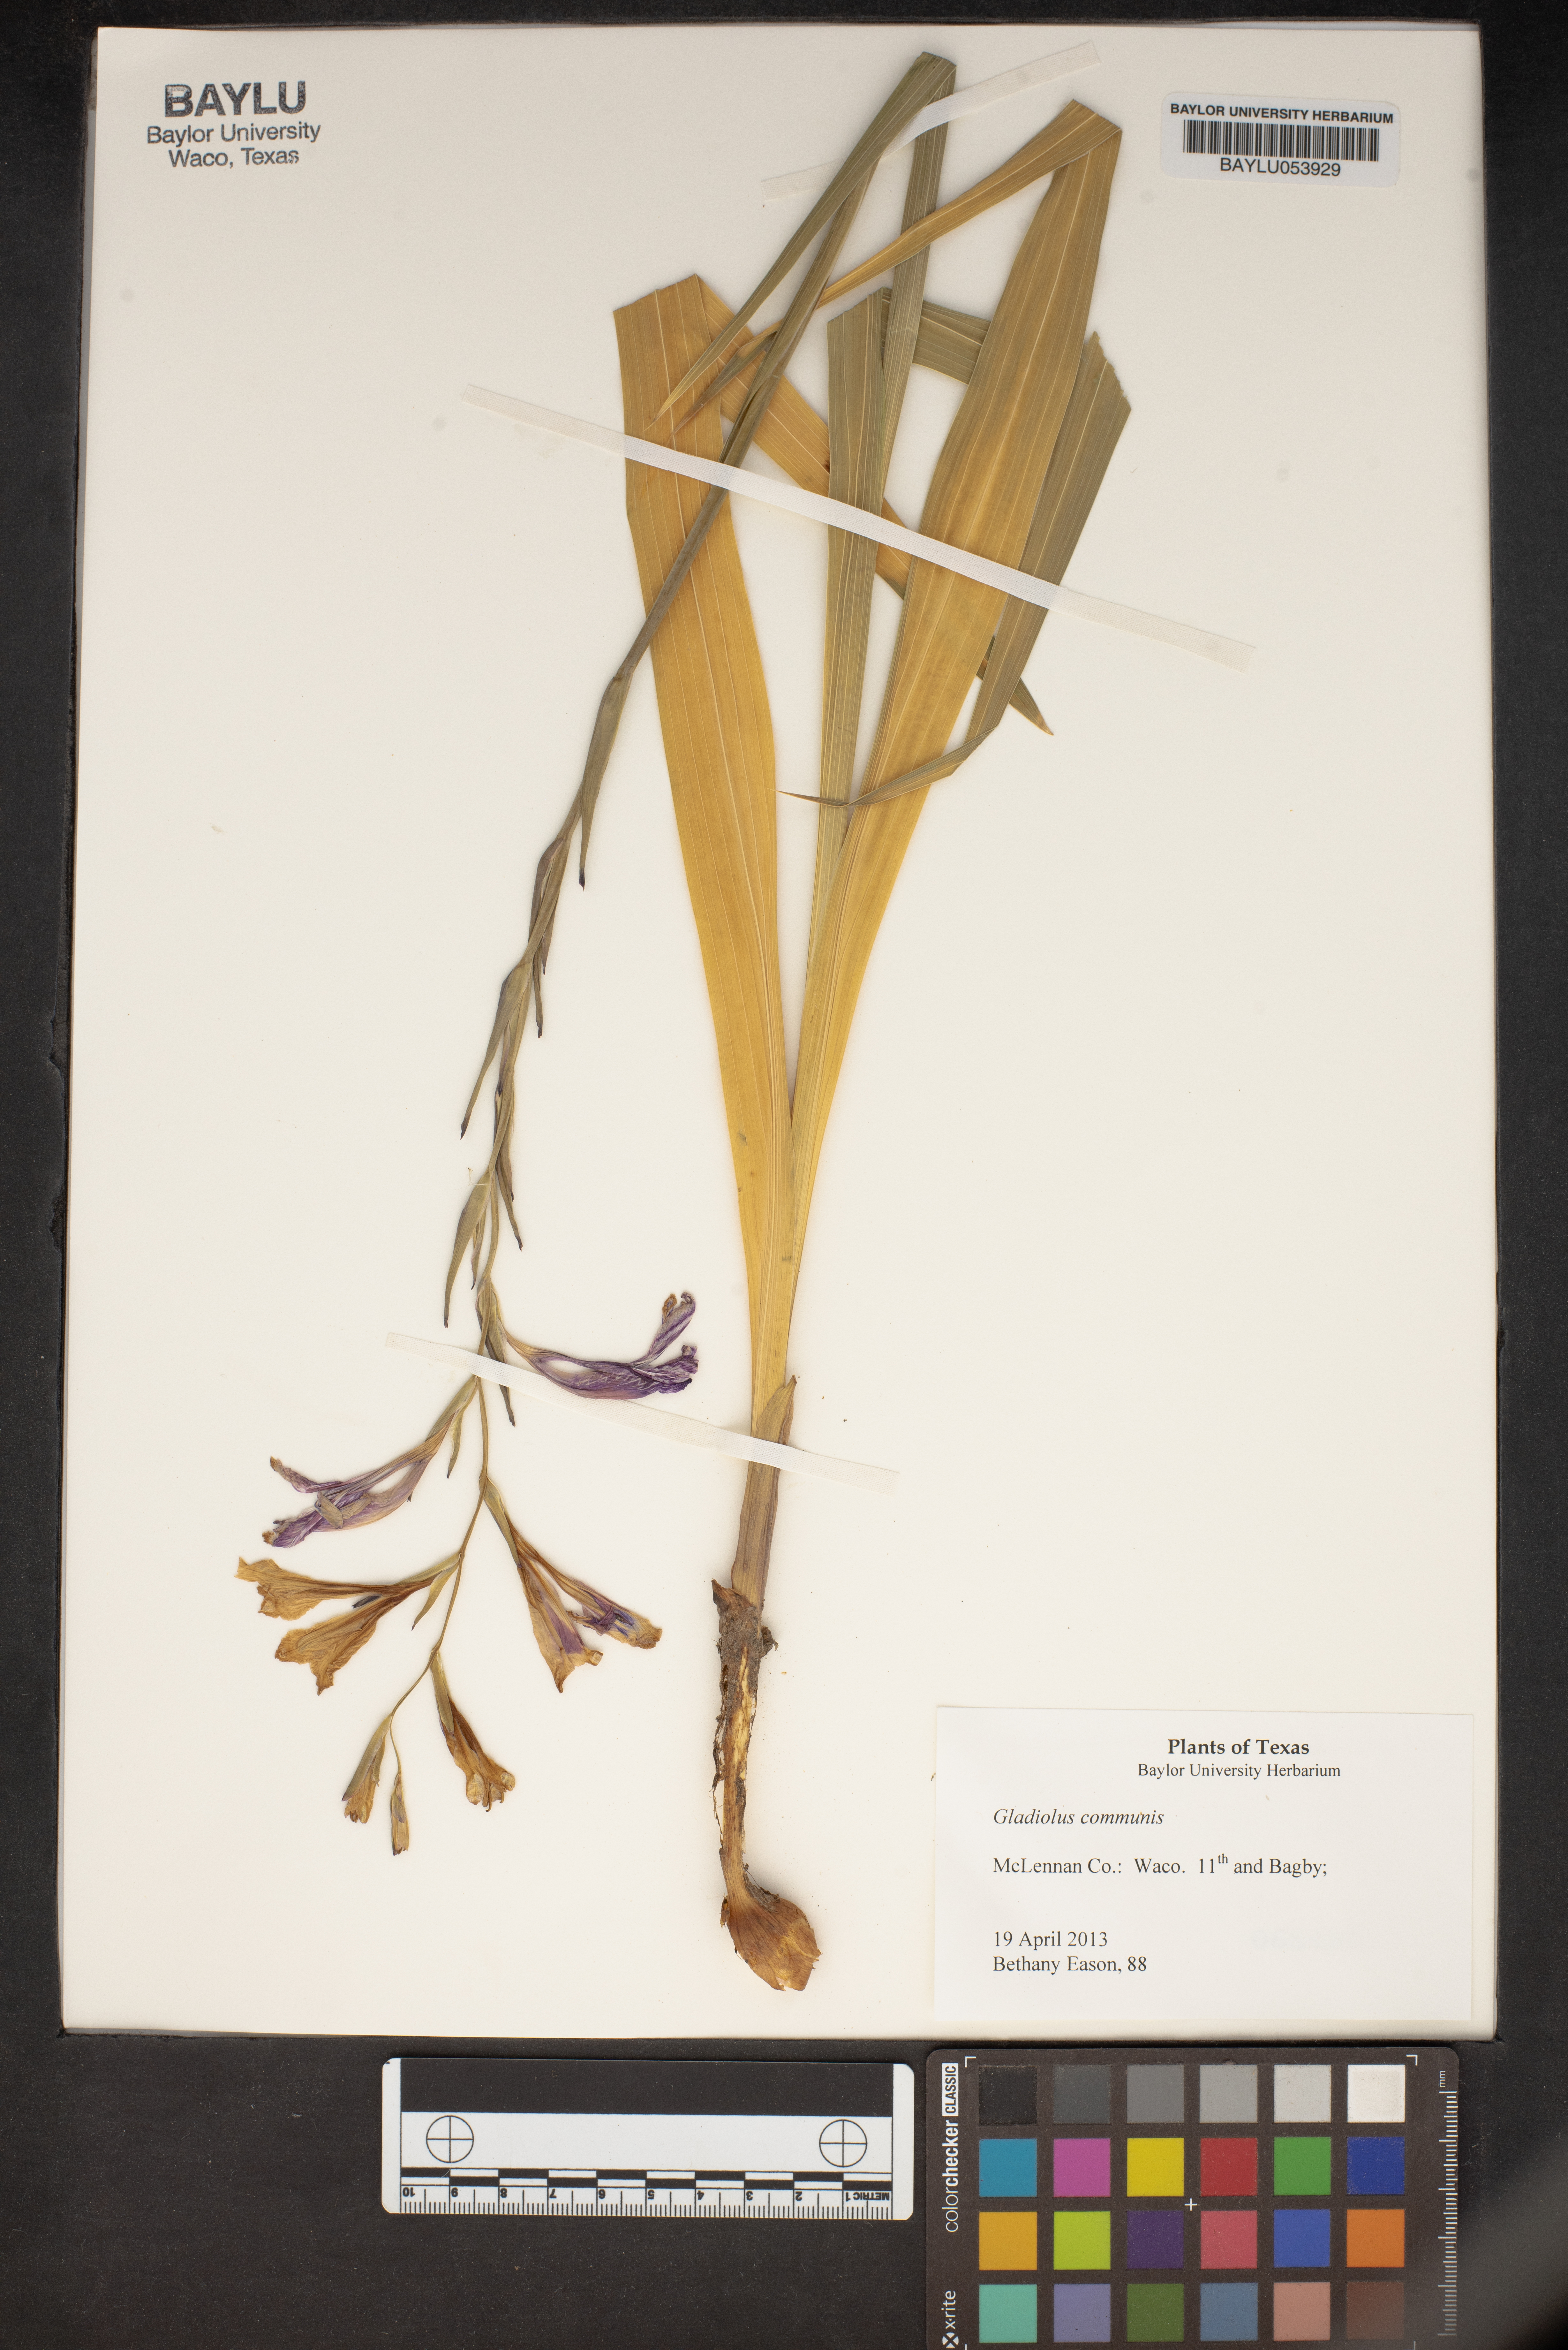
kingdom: Plantae
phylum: Tracheophyta
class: Liliopsida
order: Asparagales
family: Iridaceae
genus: Gladiolus
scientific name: Gladiolus communis
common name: Eastern gladiolus
